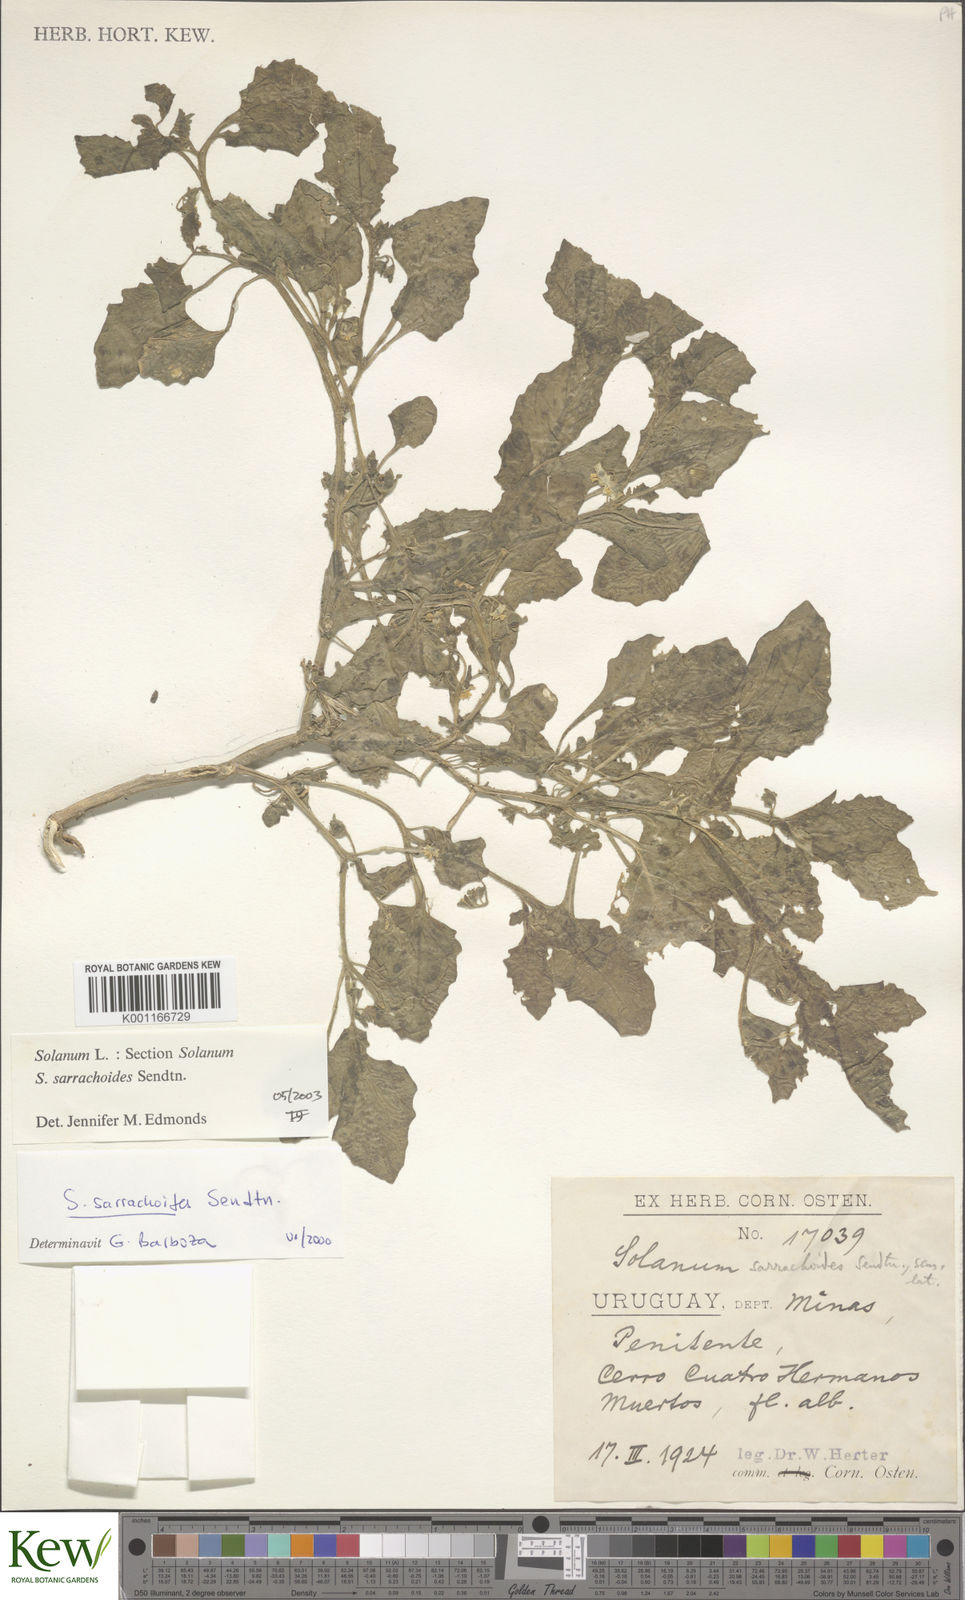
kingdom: Plantae
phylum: Tracheophyta
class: Magnoliopsida
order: Solanales
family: Solanaceae
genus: Solanum
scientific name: Solanum sarrachoides
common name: Leafy-fruited nightshade
